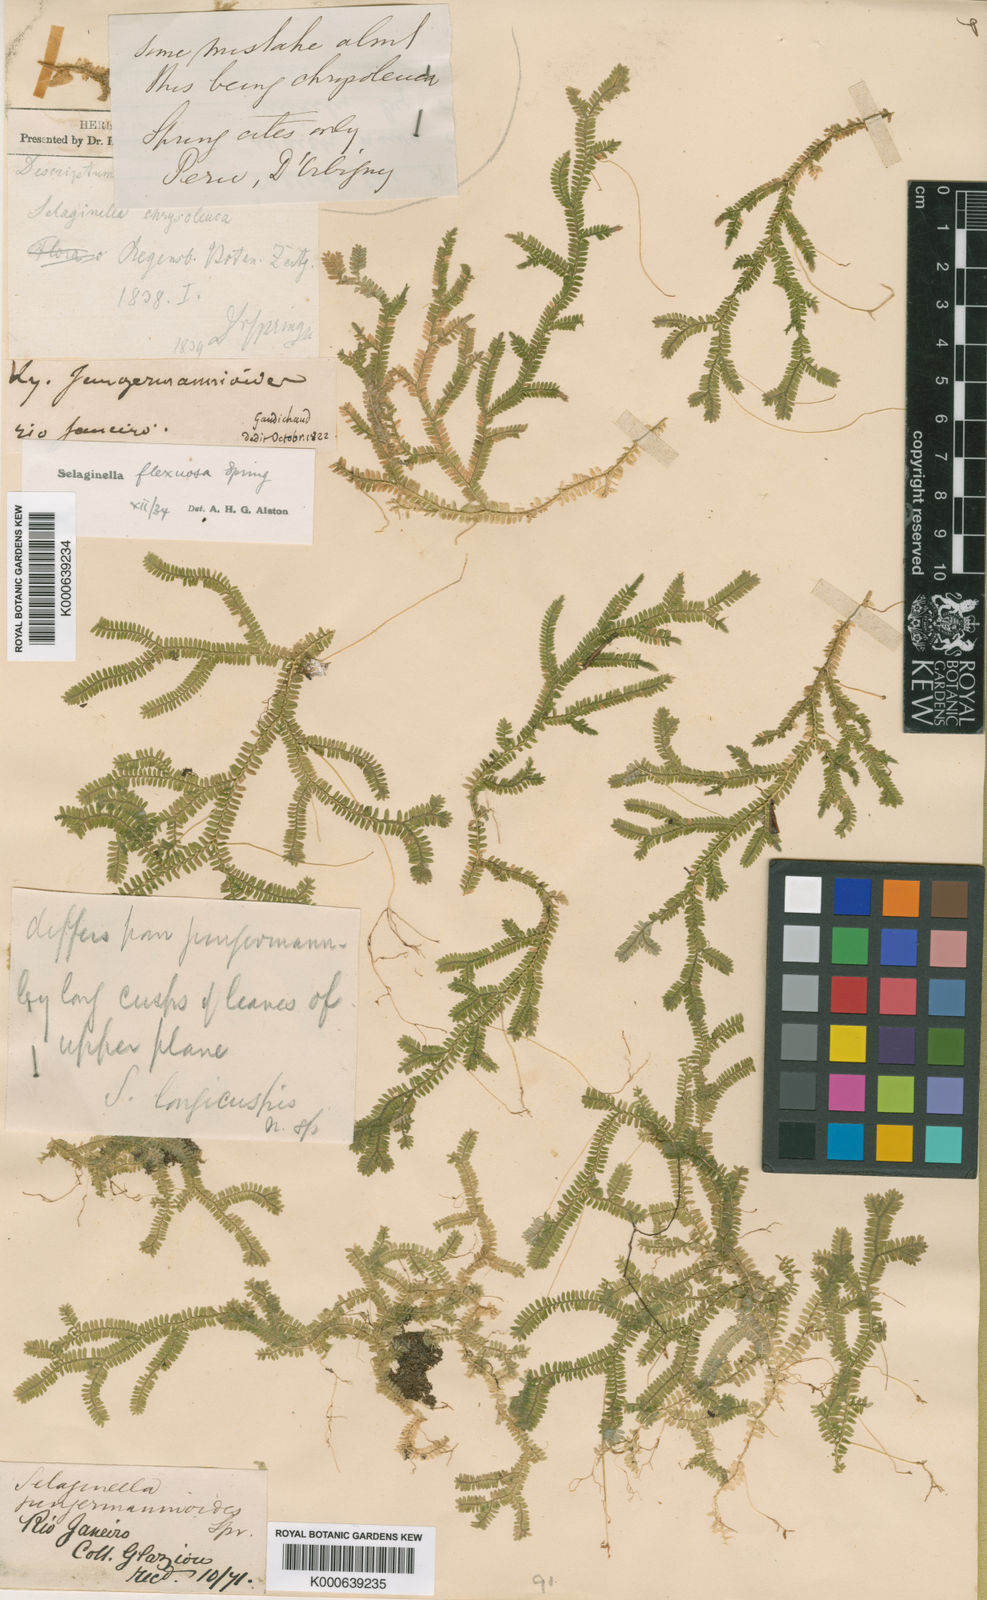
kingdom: Plantae
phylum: Tracheophyta
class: Lycopodiopsida
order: Selaginellales
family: Selaginellaceae
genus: Selaginella
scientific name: Selaginella flexuosa
